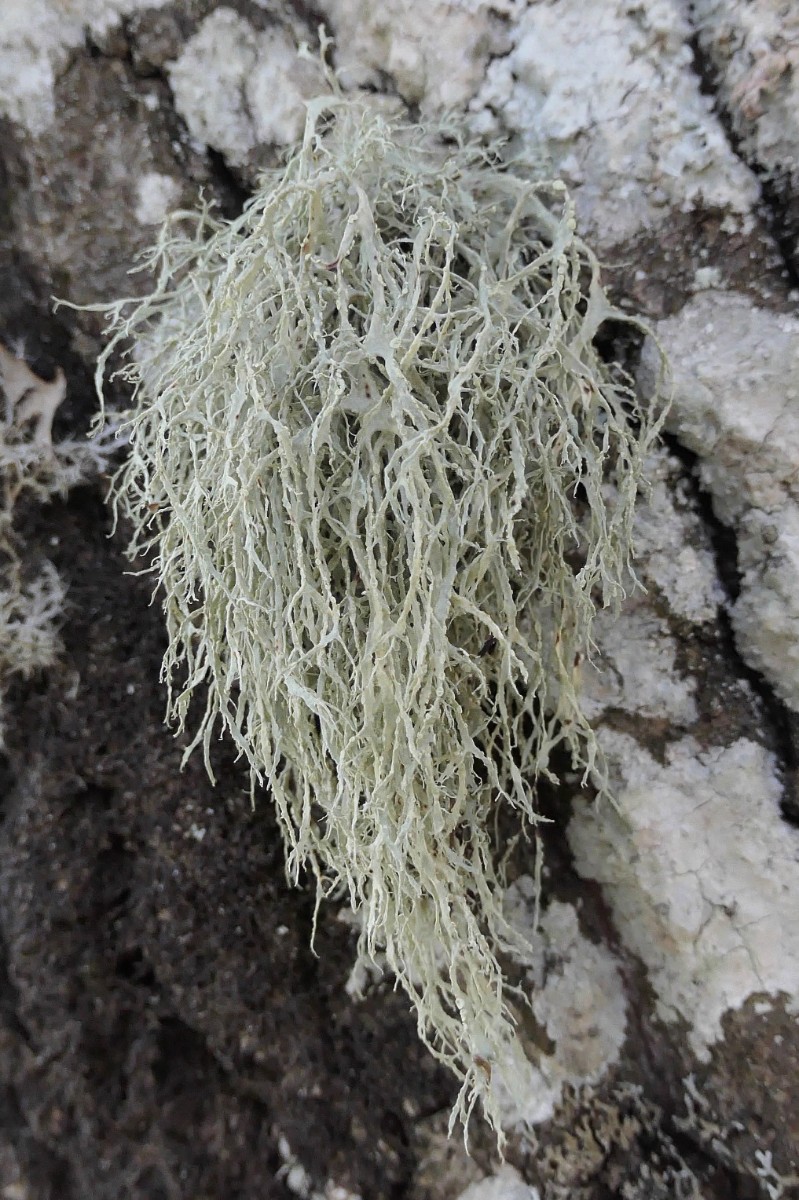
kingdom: Fungi
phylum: Ascomycota
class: Lecanoromycetes
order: Lecanorales
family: Ramalinaceae
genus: Ramalina
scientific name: Ramalina farinacea
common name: melet grenlav
